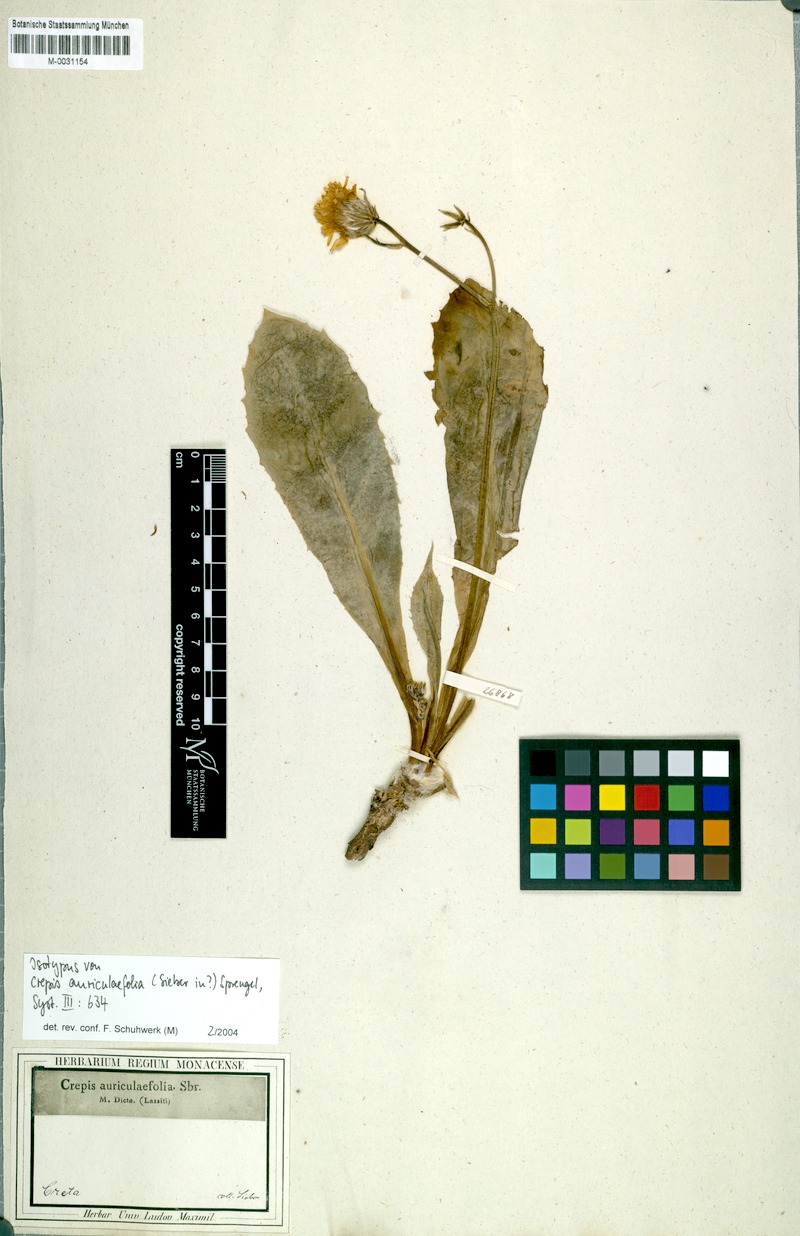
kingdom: Plantae
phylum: Tracheophyta
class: Magnoliopsida
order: Asterales
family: Asteraceae
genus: Crepis
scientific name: Crepis auriculifolia
